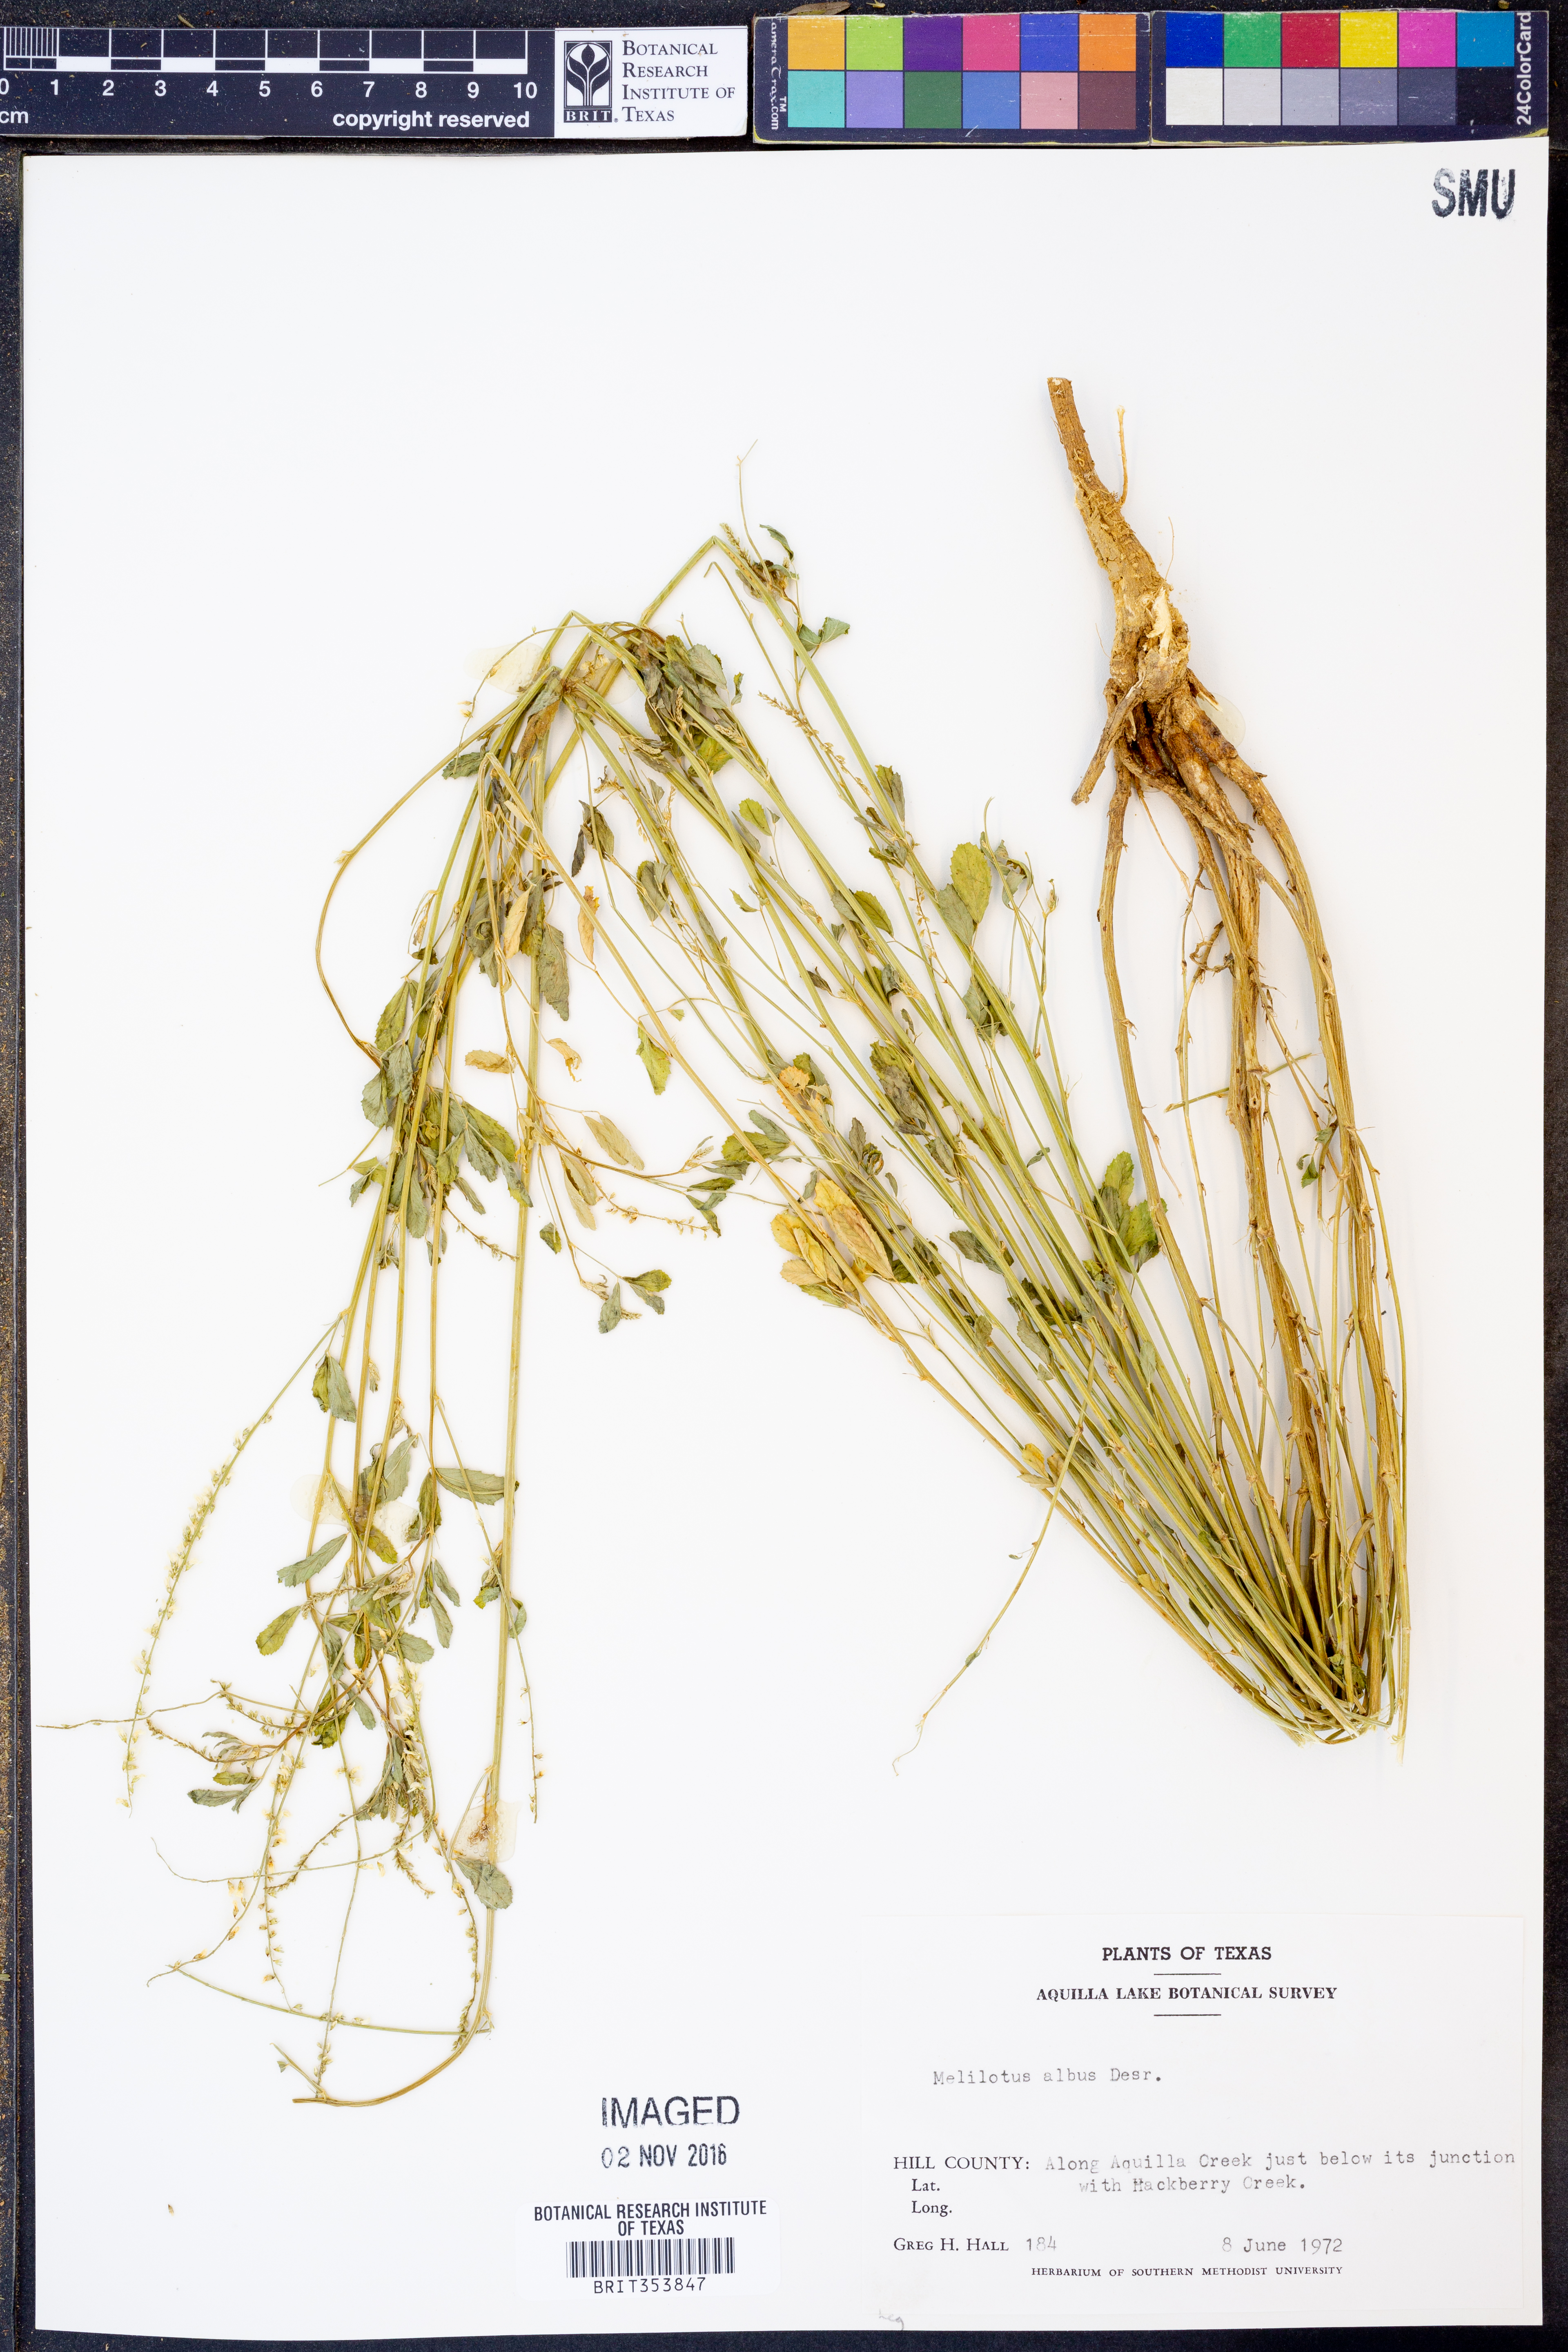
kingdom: Plantae
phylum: Tracheophyta
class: Magnoliopsida
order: Fabales
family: Fabaceae
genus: Melilotus
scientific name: Melilotus albus
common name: White melilot
